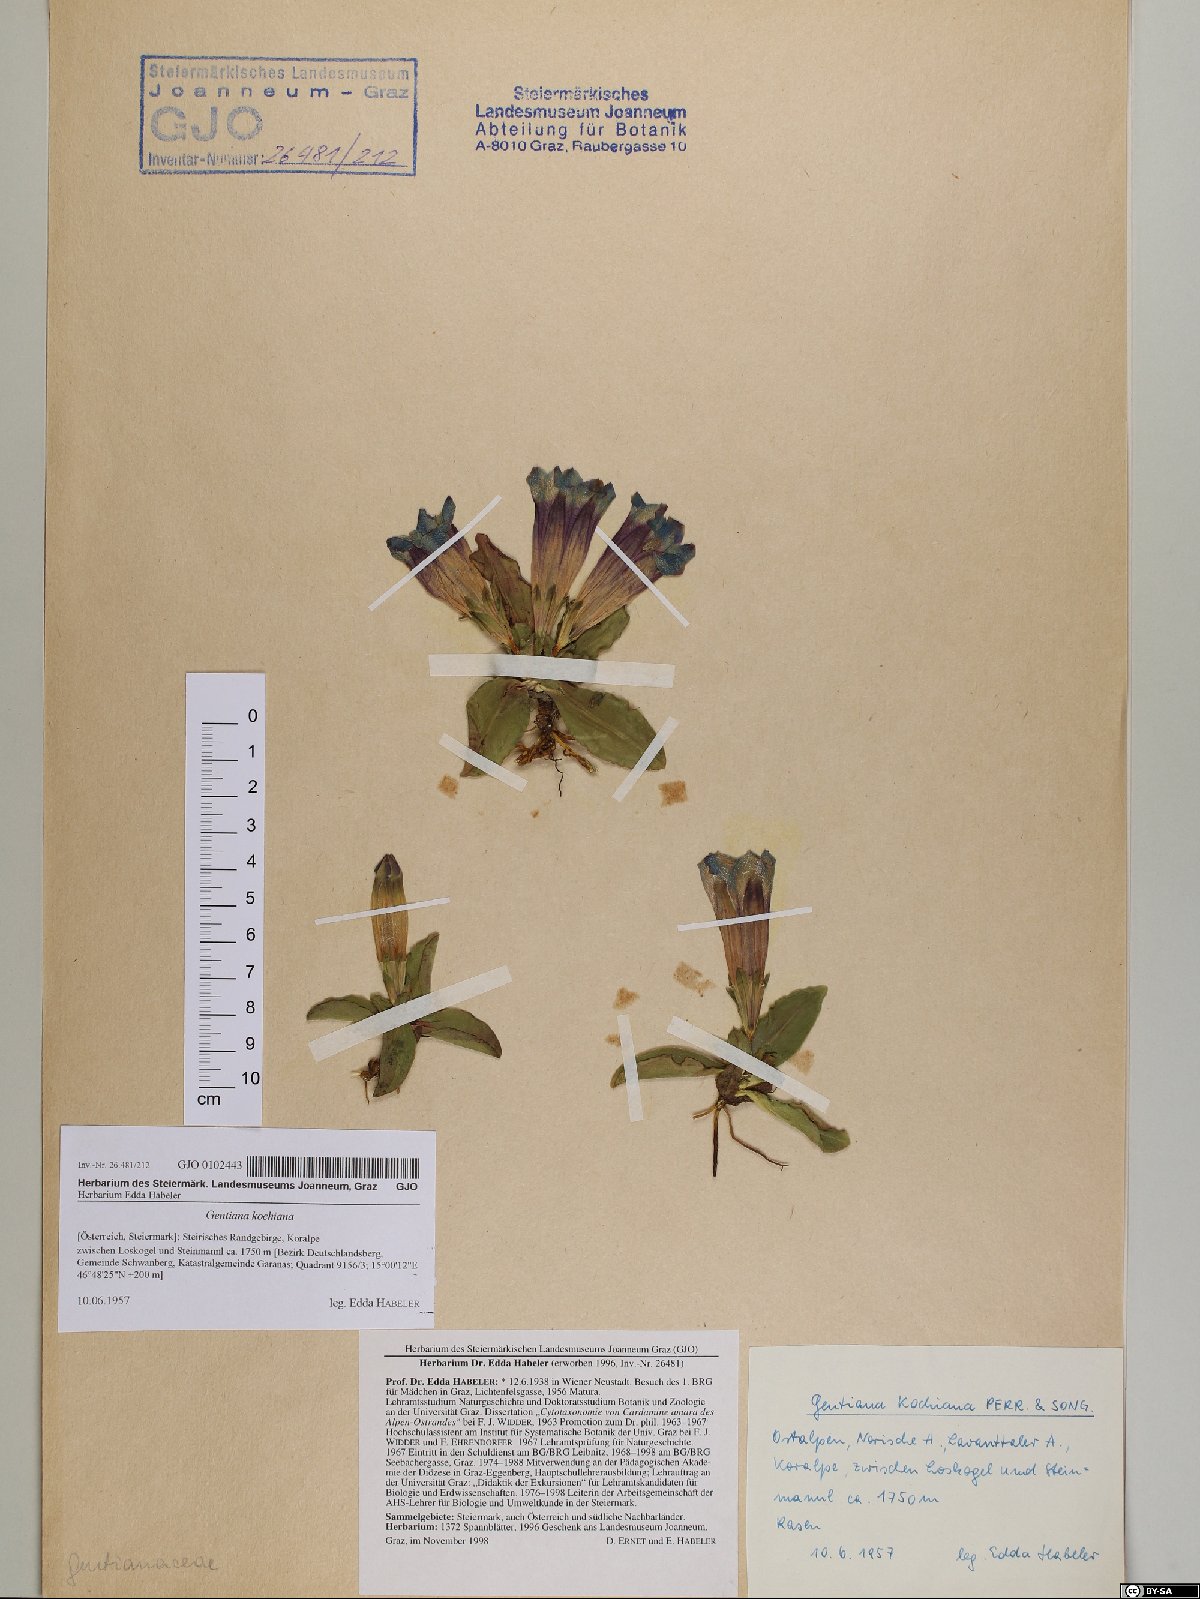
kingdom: Plantae
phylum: Tracheophyta
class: Magnoliopsida
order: Gentianales
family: Gentianaceae
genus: Gentiana
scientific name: Gentiana acaulis
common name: Trumpet gentian
